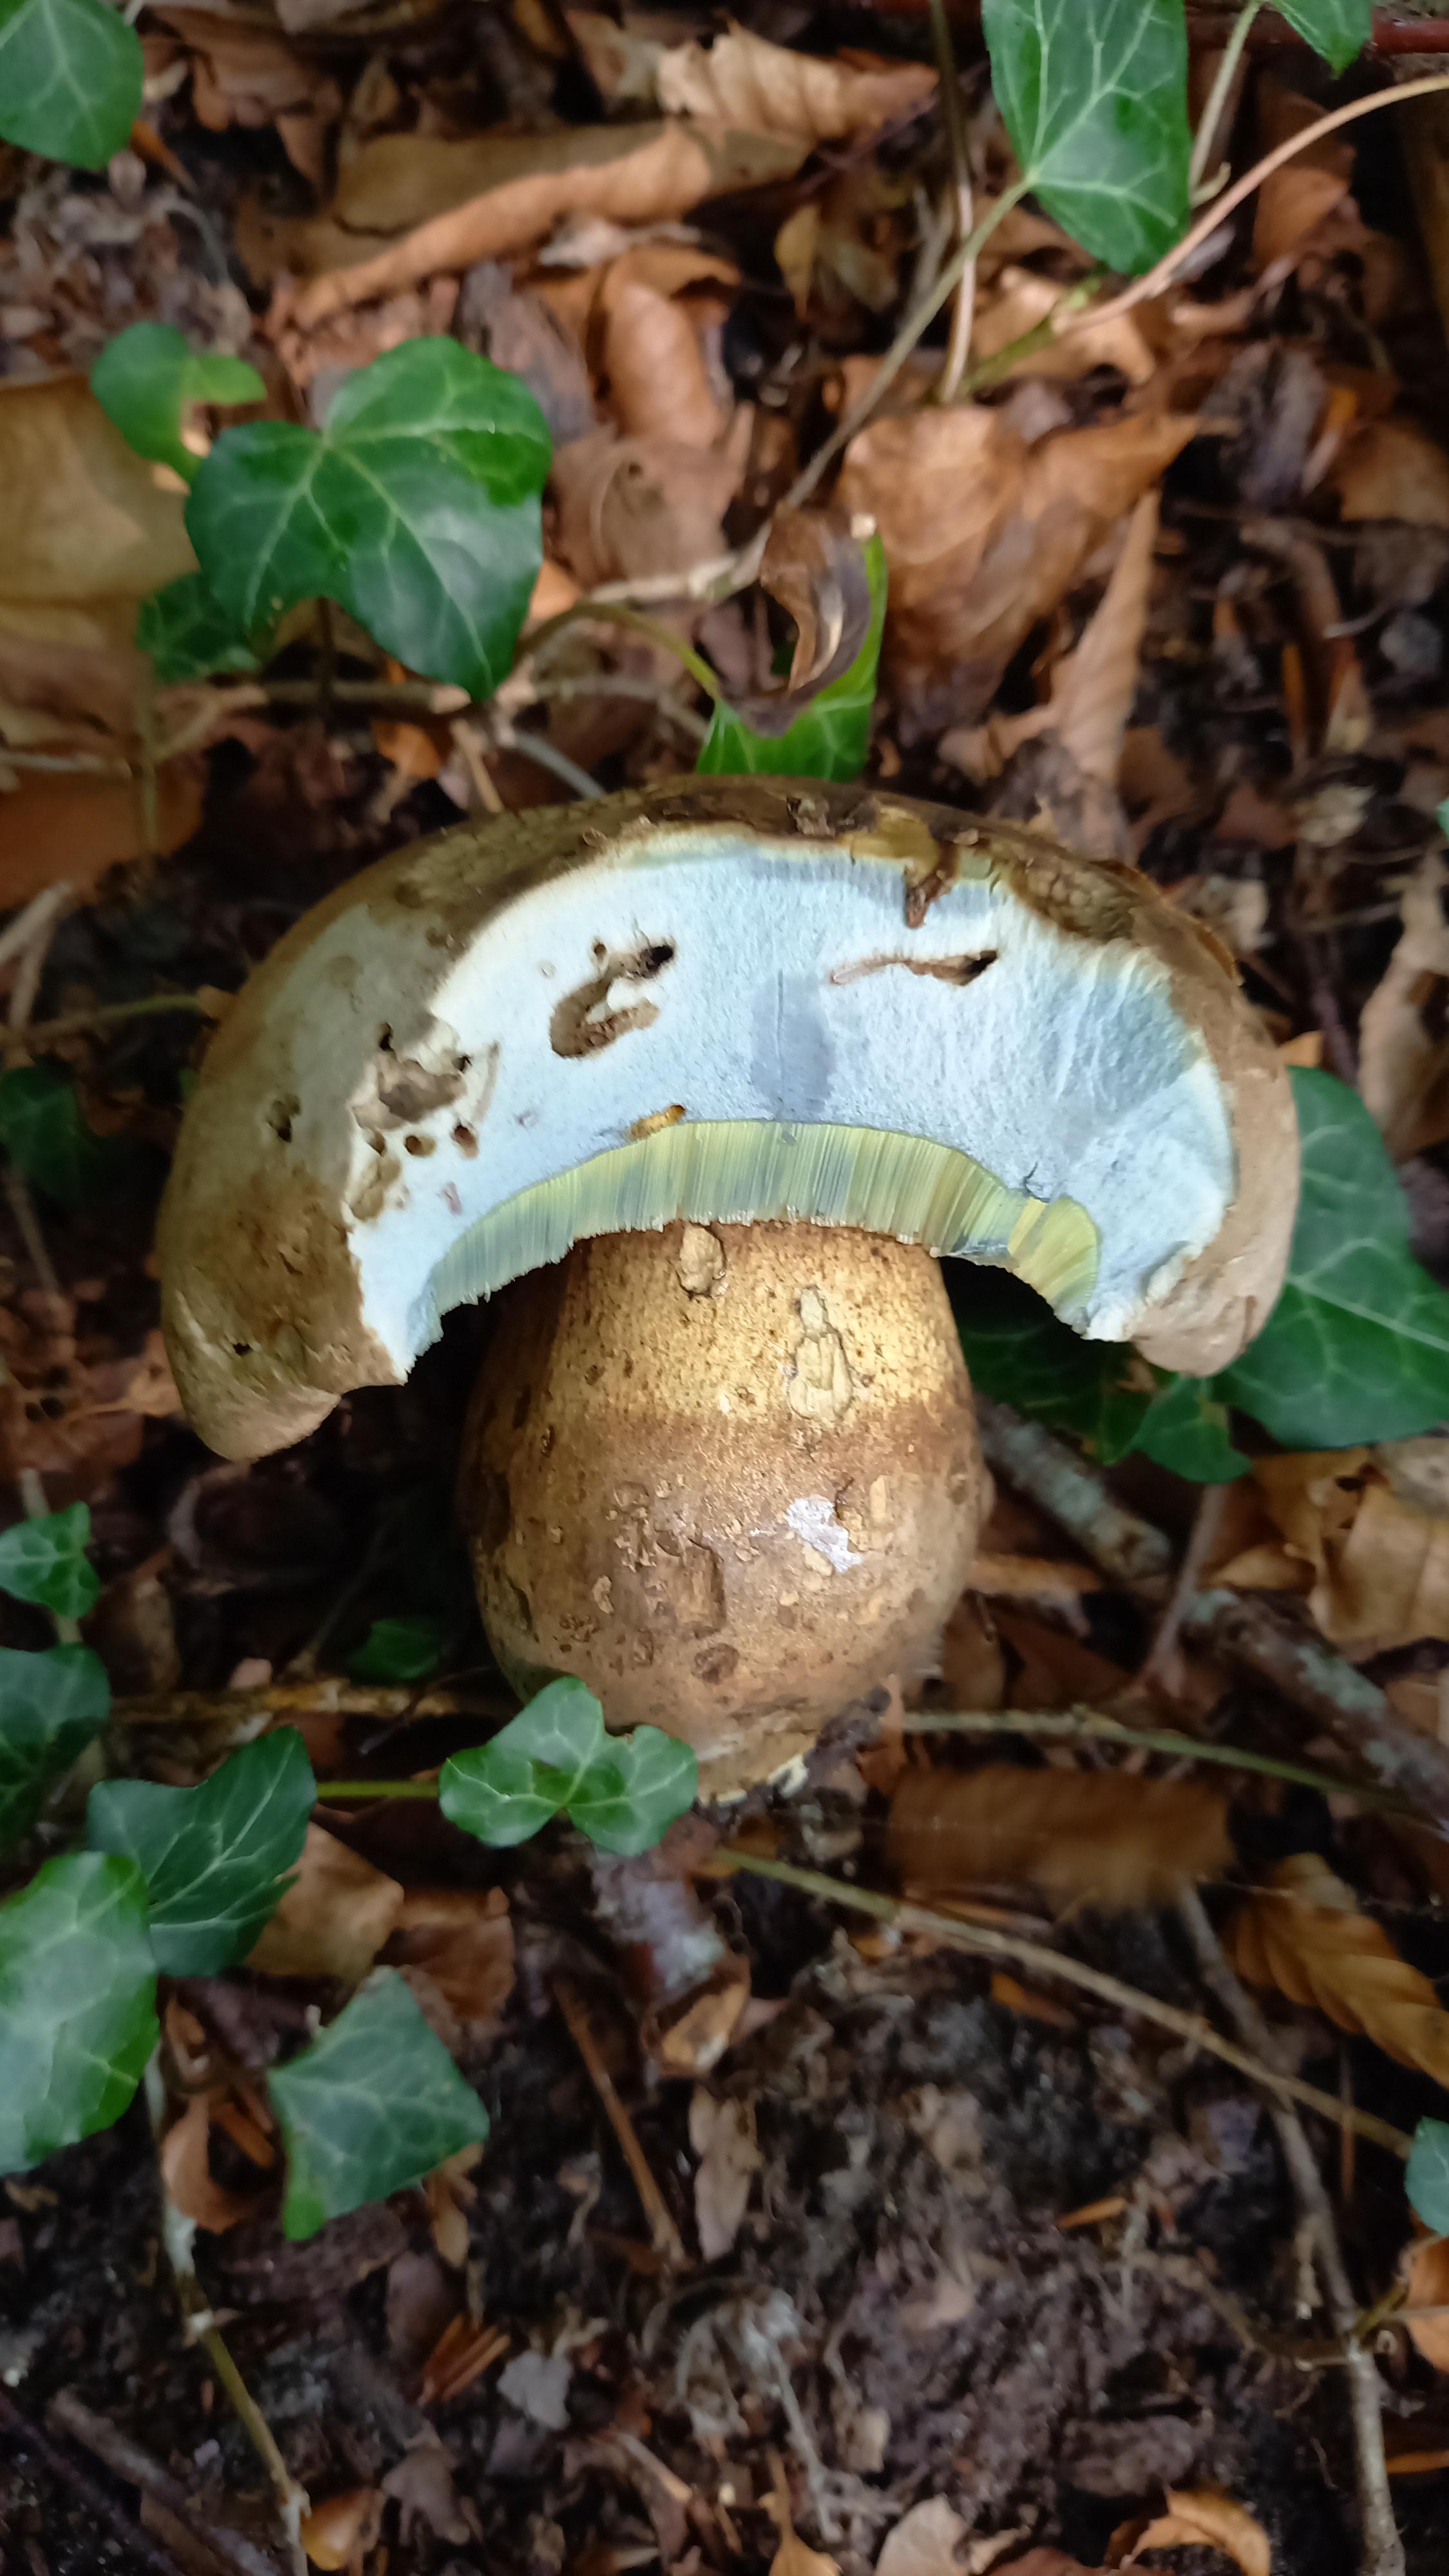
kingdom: Fungi
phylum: Basidiomycota
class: Agaricomycetes
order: Boletales
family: Boletaceae
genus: Caloboletus
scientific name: Caloboletus radicans
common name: rod-rørhat
